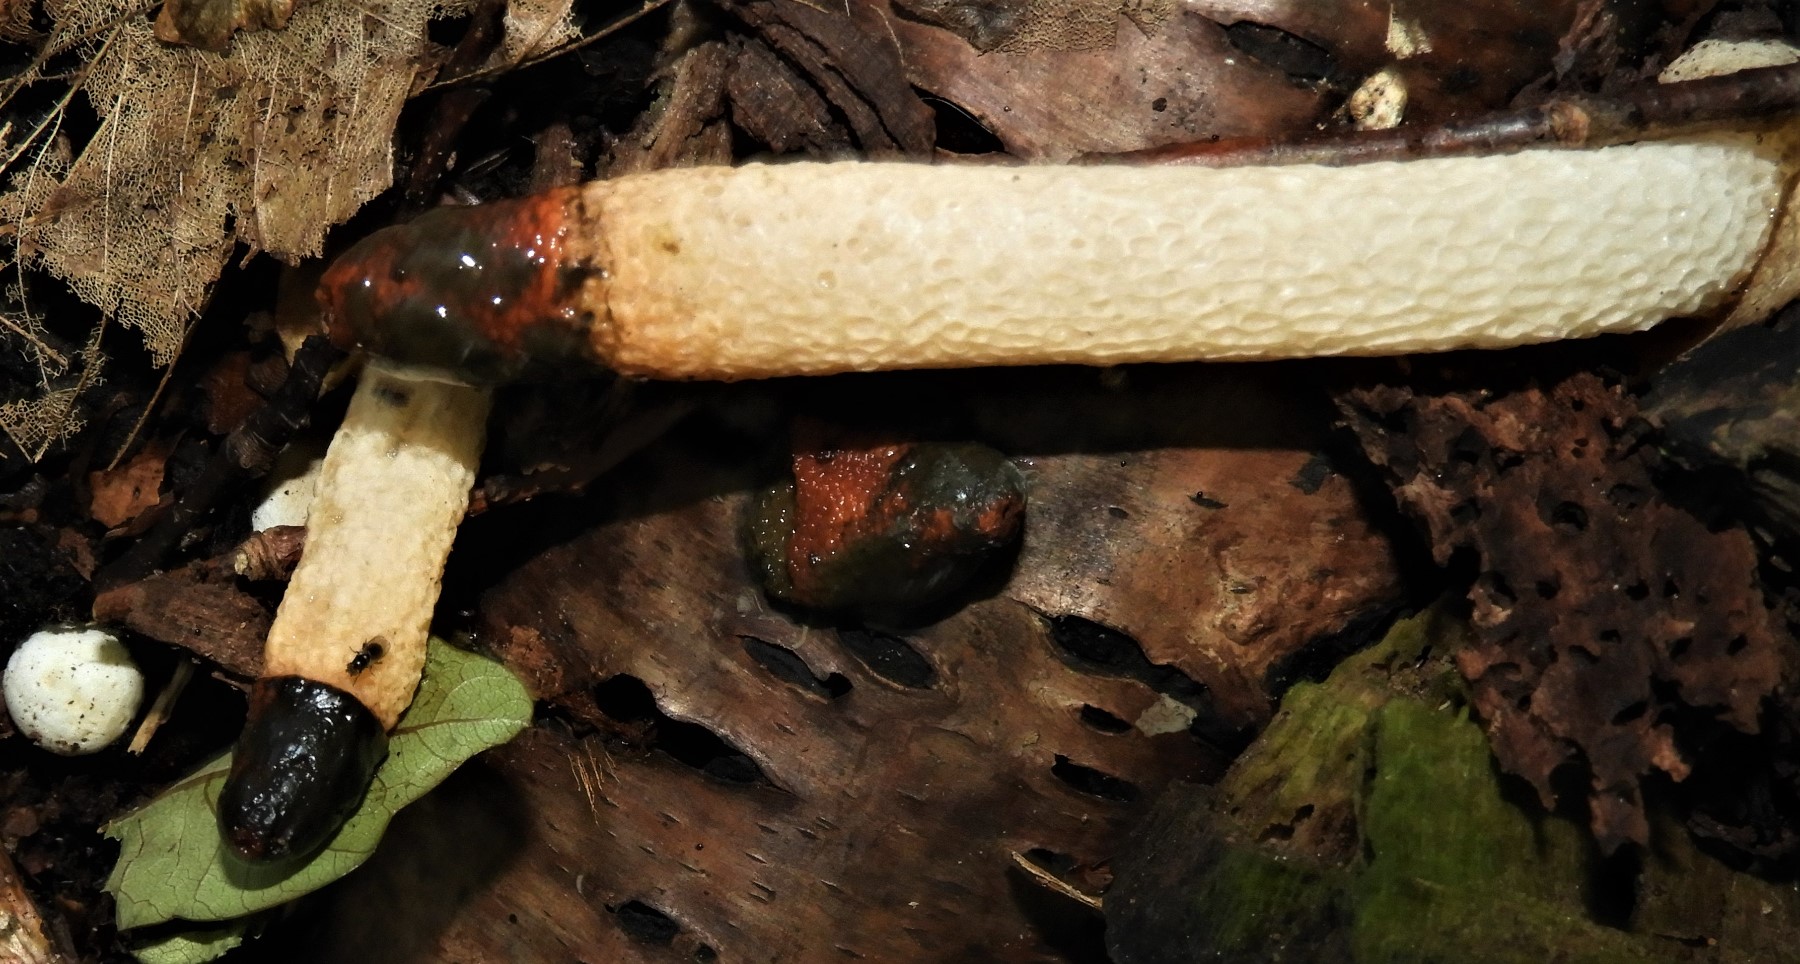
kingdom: Fungi
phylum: Basidiomycota
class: Agaricomycetes
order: Phallales
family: Phallaceae
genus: Mutinus
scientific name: Mutinus caninus
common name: hunde-stinksvamp
